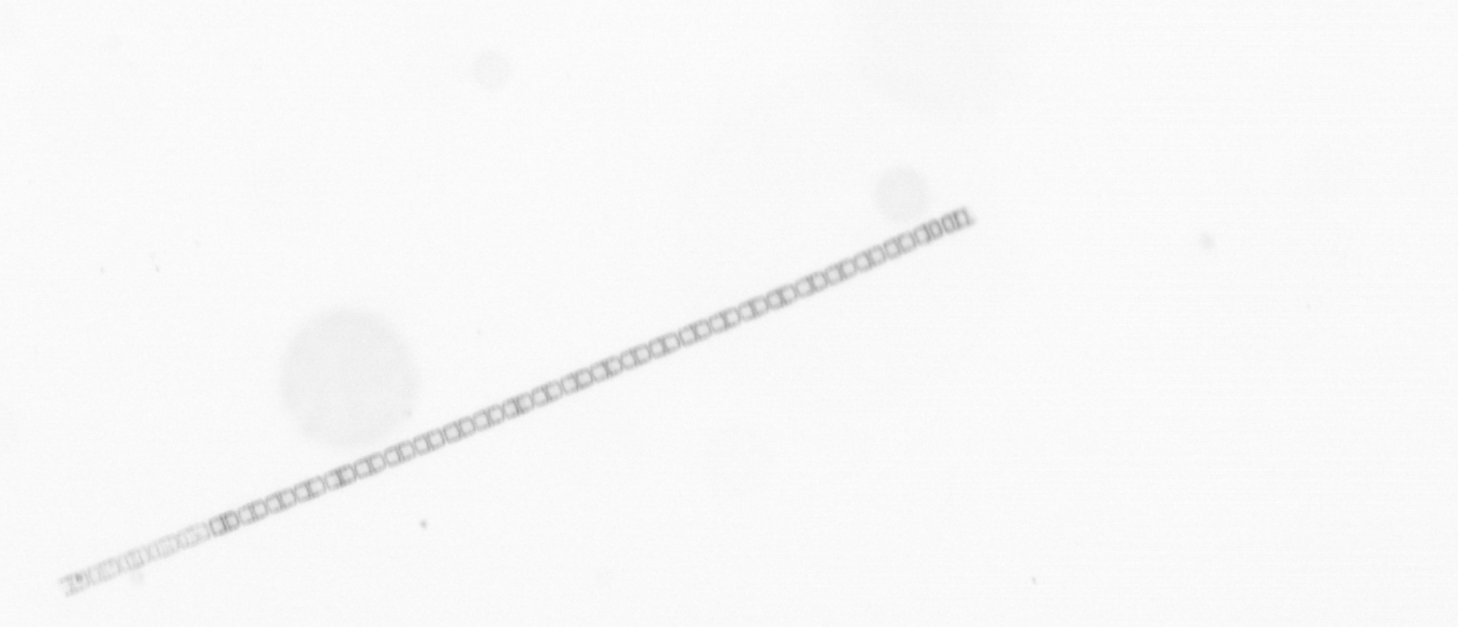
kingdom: Chromista
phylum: Ochrophyta
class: Bacillariophyceae
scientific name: Bacillariophyceae
